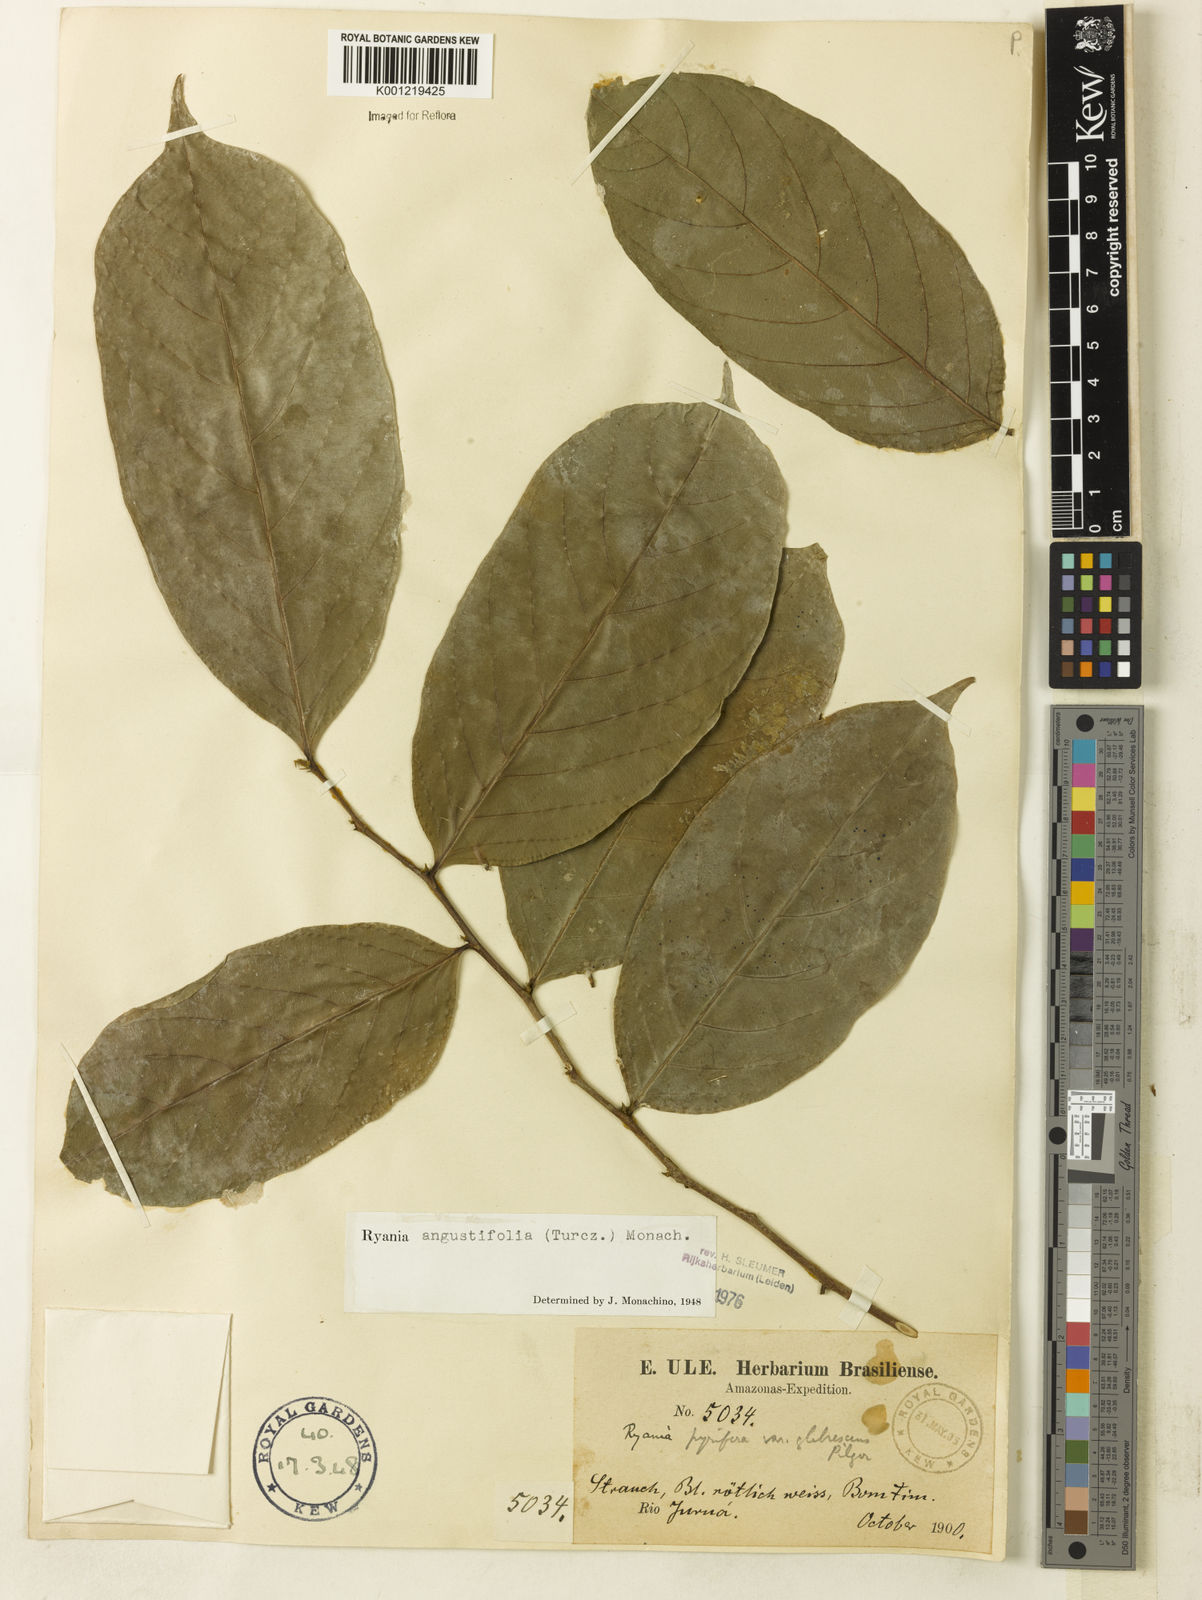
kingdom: Plantae
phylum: Tracheophyta
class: Magnoliopsida
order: Malpighiales
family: Salicaceae
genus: Ryania
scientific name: Ryania angustifolia
